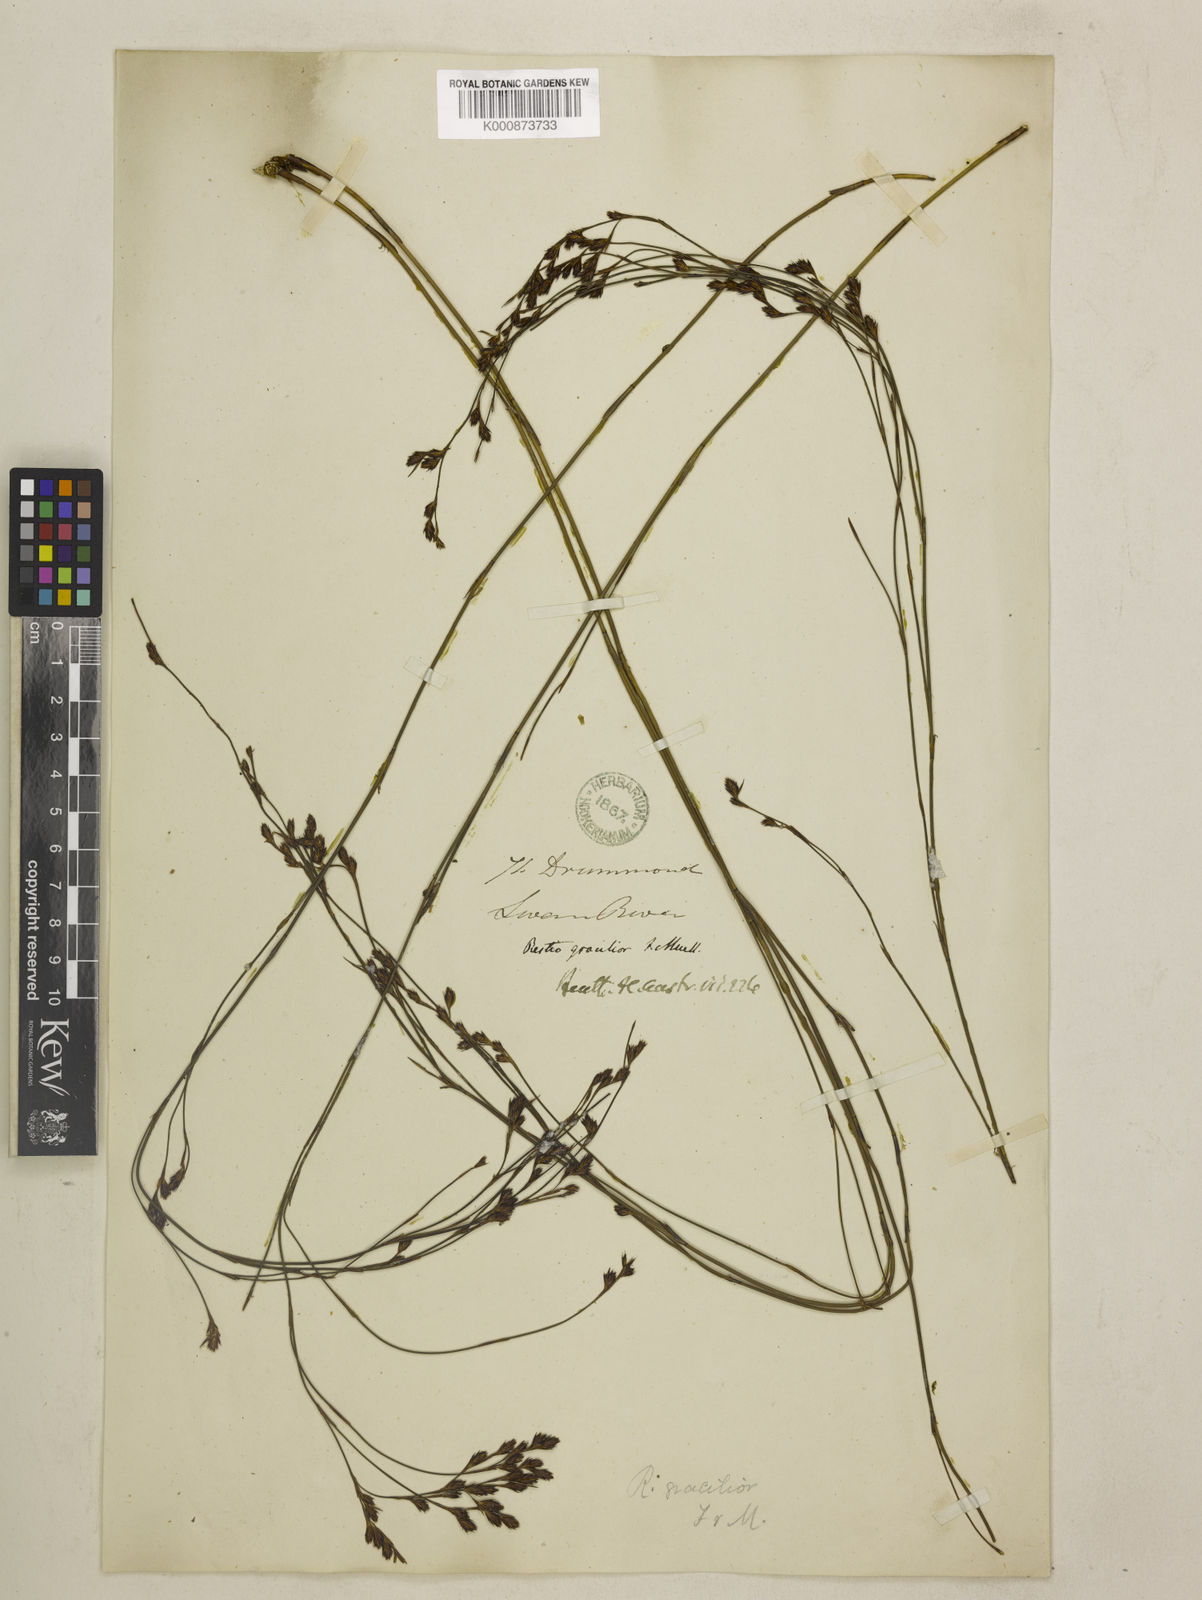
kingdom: Plantae
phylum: Tracheophyta
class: Liliopsida
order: Poales
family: Restionaceae
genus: Chordifex
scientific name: Chordifex gracilior
